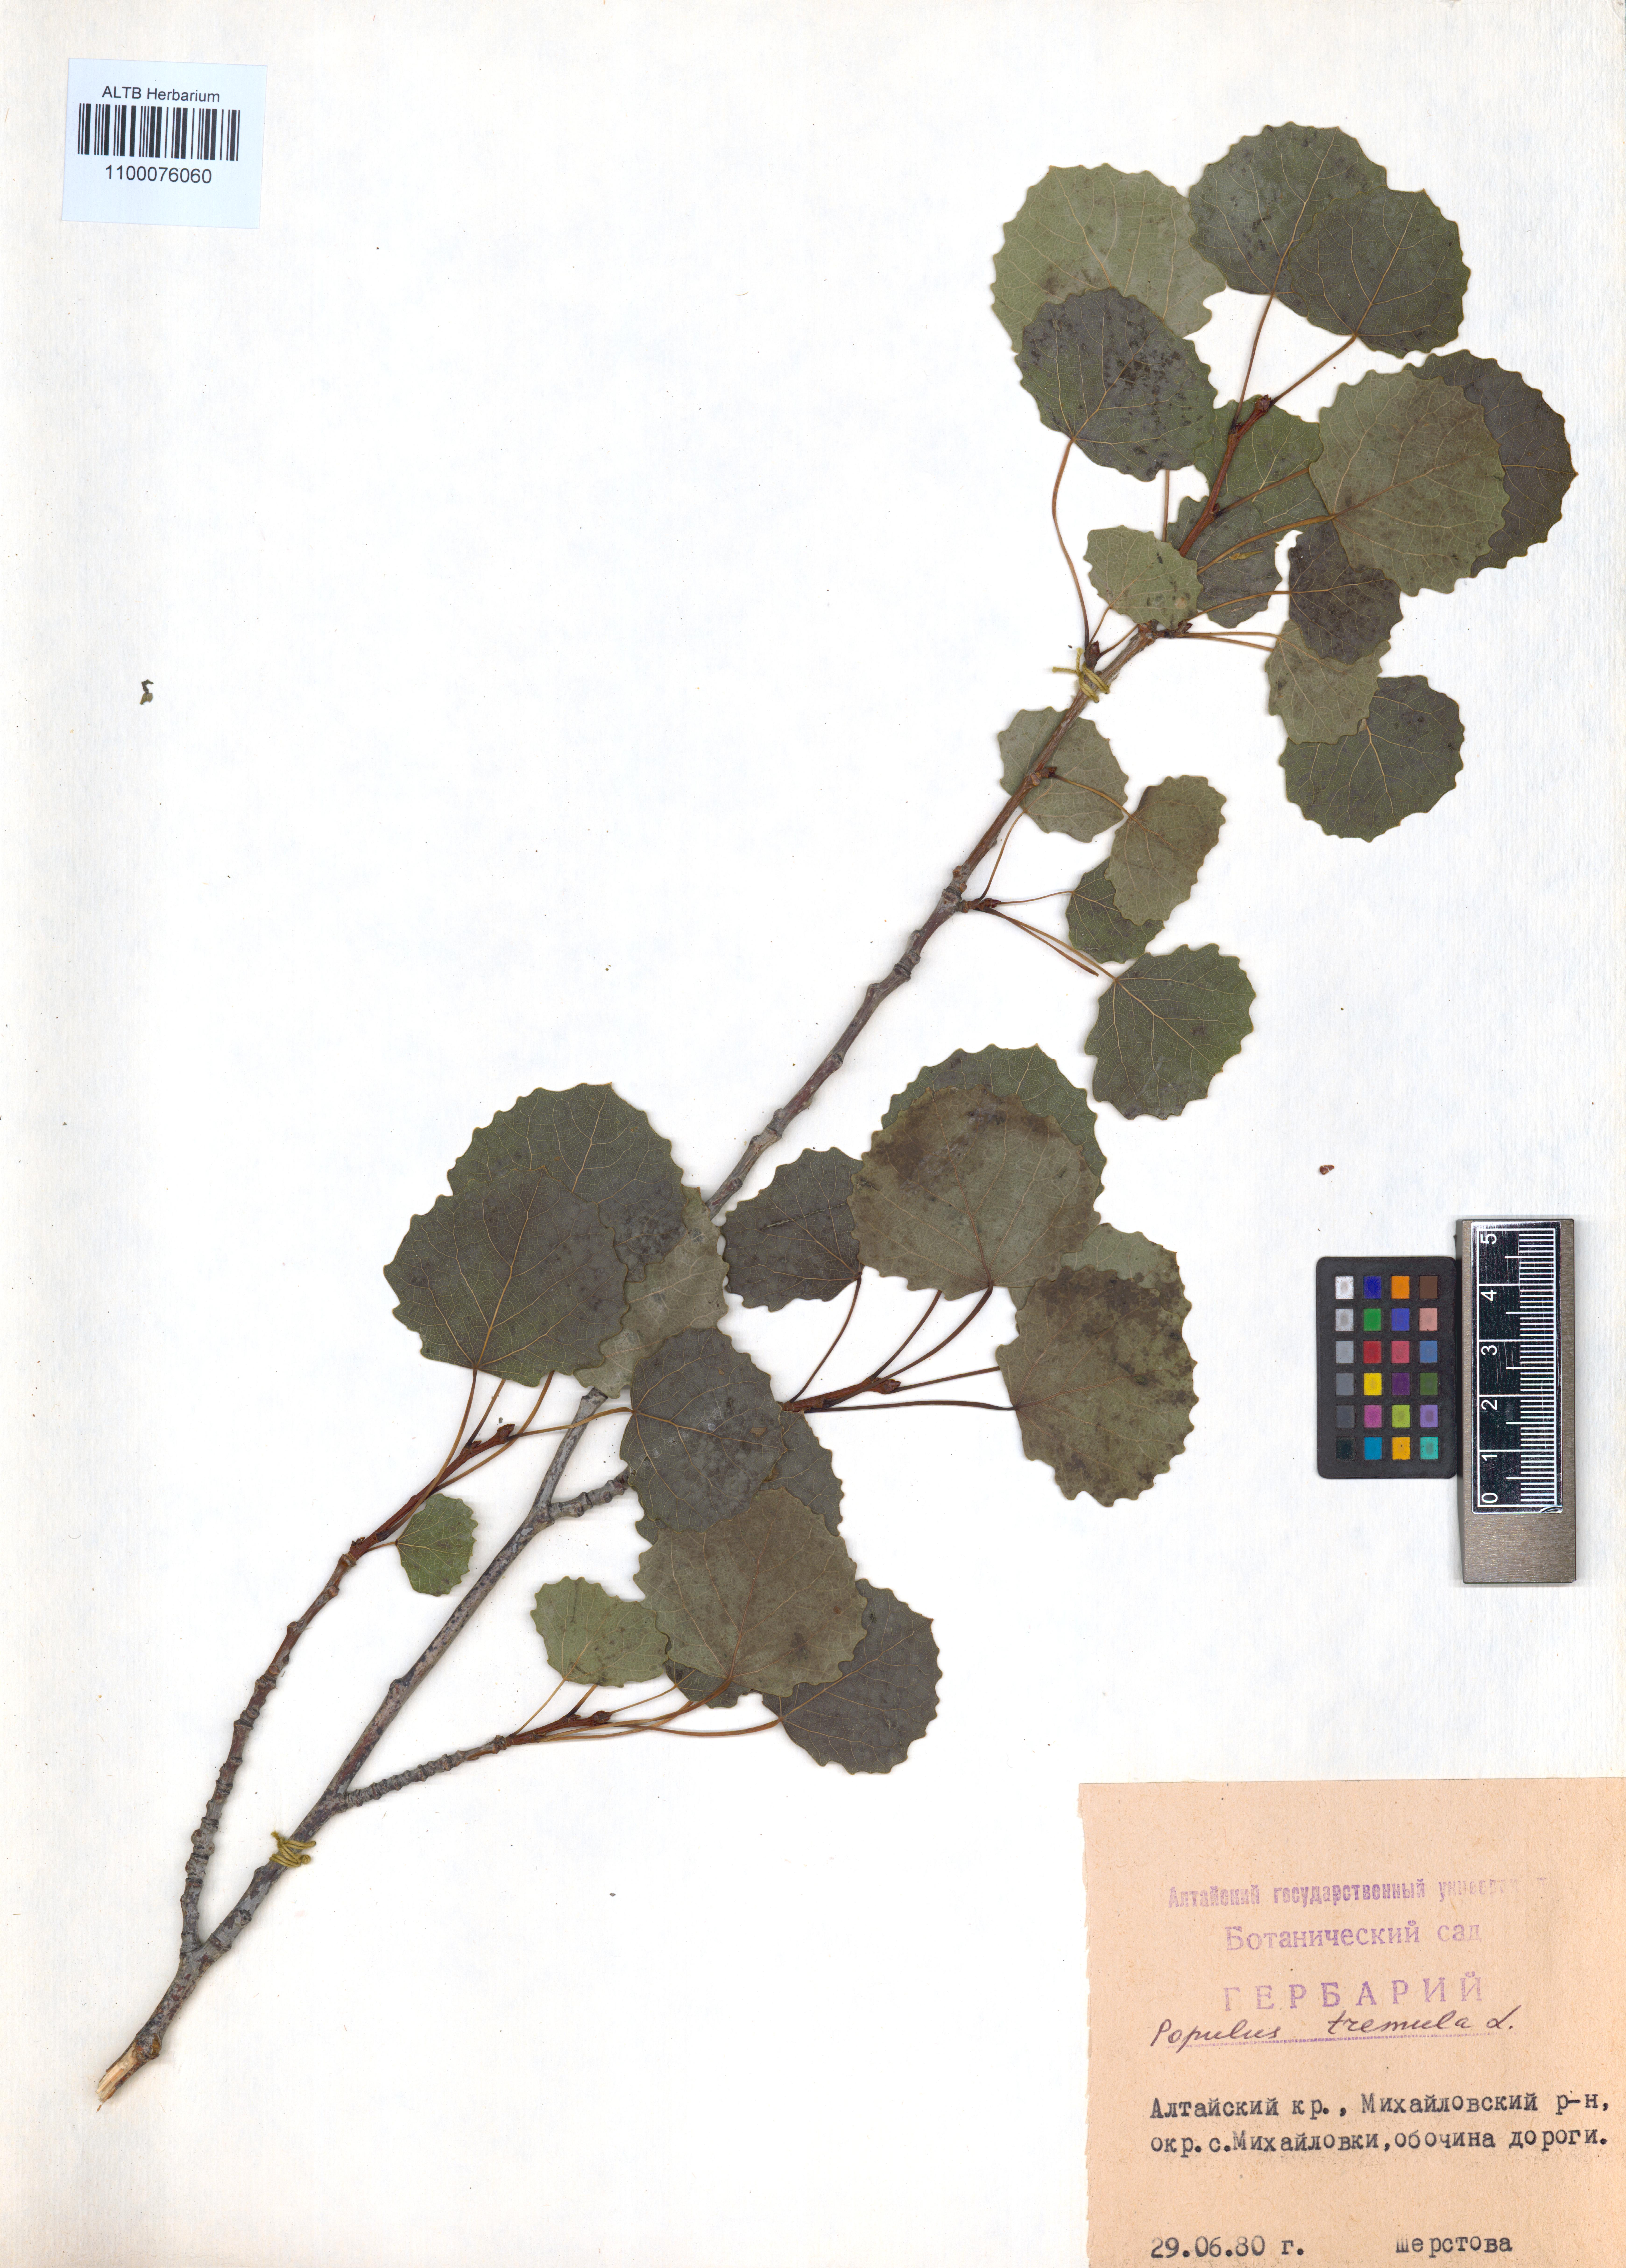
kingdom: Plantae
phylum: Tracheophyta
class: Magnoliopsida
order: Malpighiales
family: Salicaceae
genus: Populus
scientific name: Populus tremula
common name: European aspen
